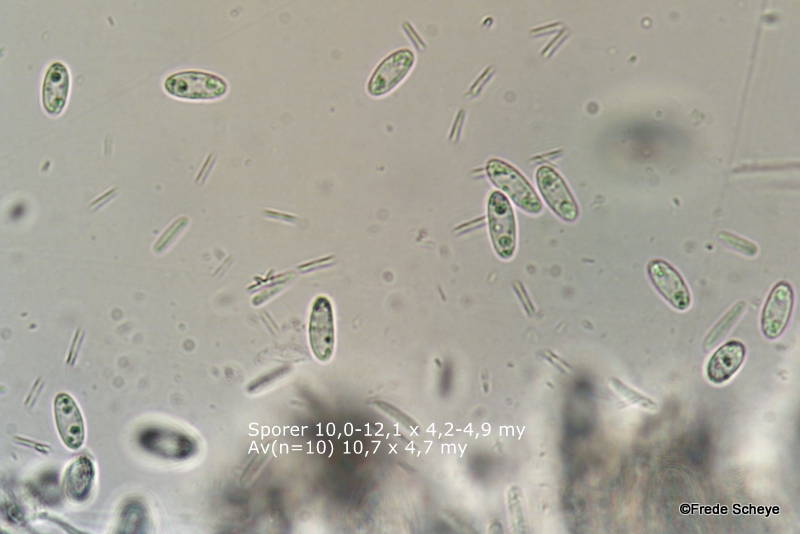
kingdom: Fungi
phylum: Ascomycota
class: Leotiomycetes
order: Helotiales
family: Pezizellaceae
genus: Calycina
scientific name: Calycina citrina
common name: almindelig gulskive
